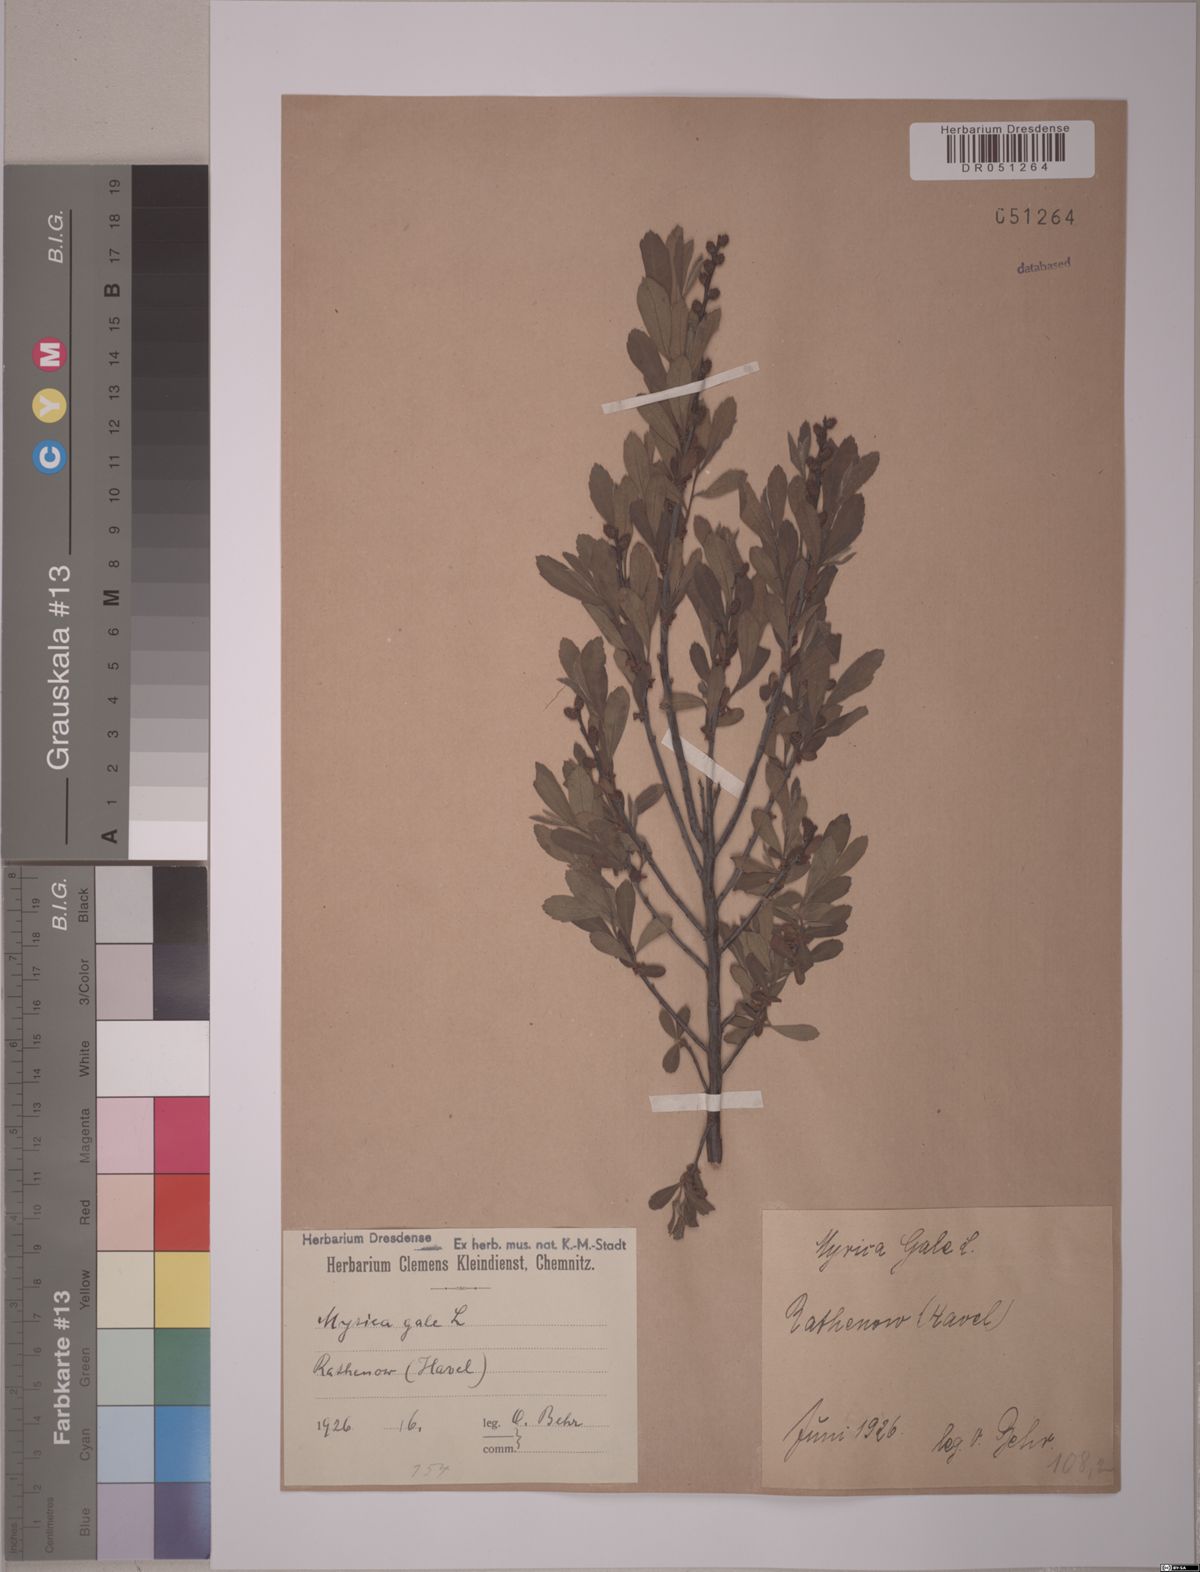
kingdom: Plantae
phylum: Tracheophyta
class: Magnoliopsida
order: Fagales
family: Myricaceae
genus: Myrica
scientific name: Myrica gale
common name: Sweet gale
